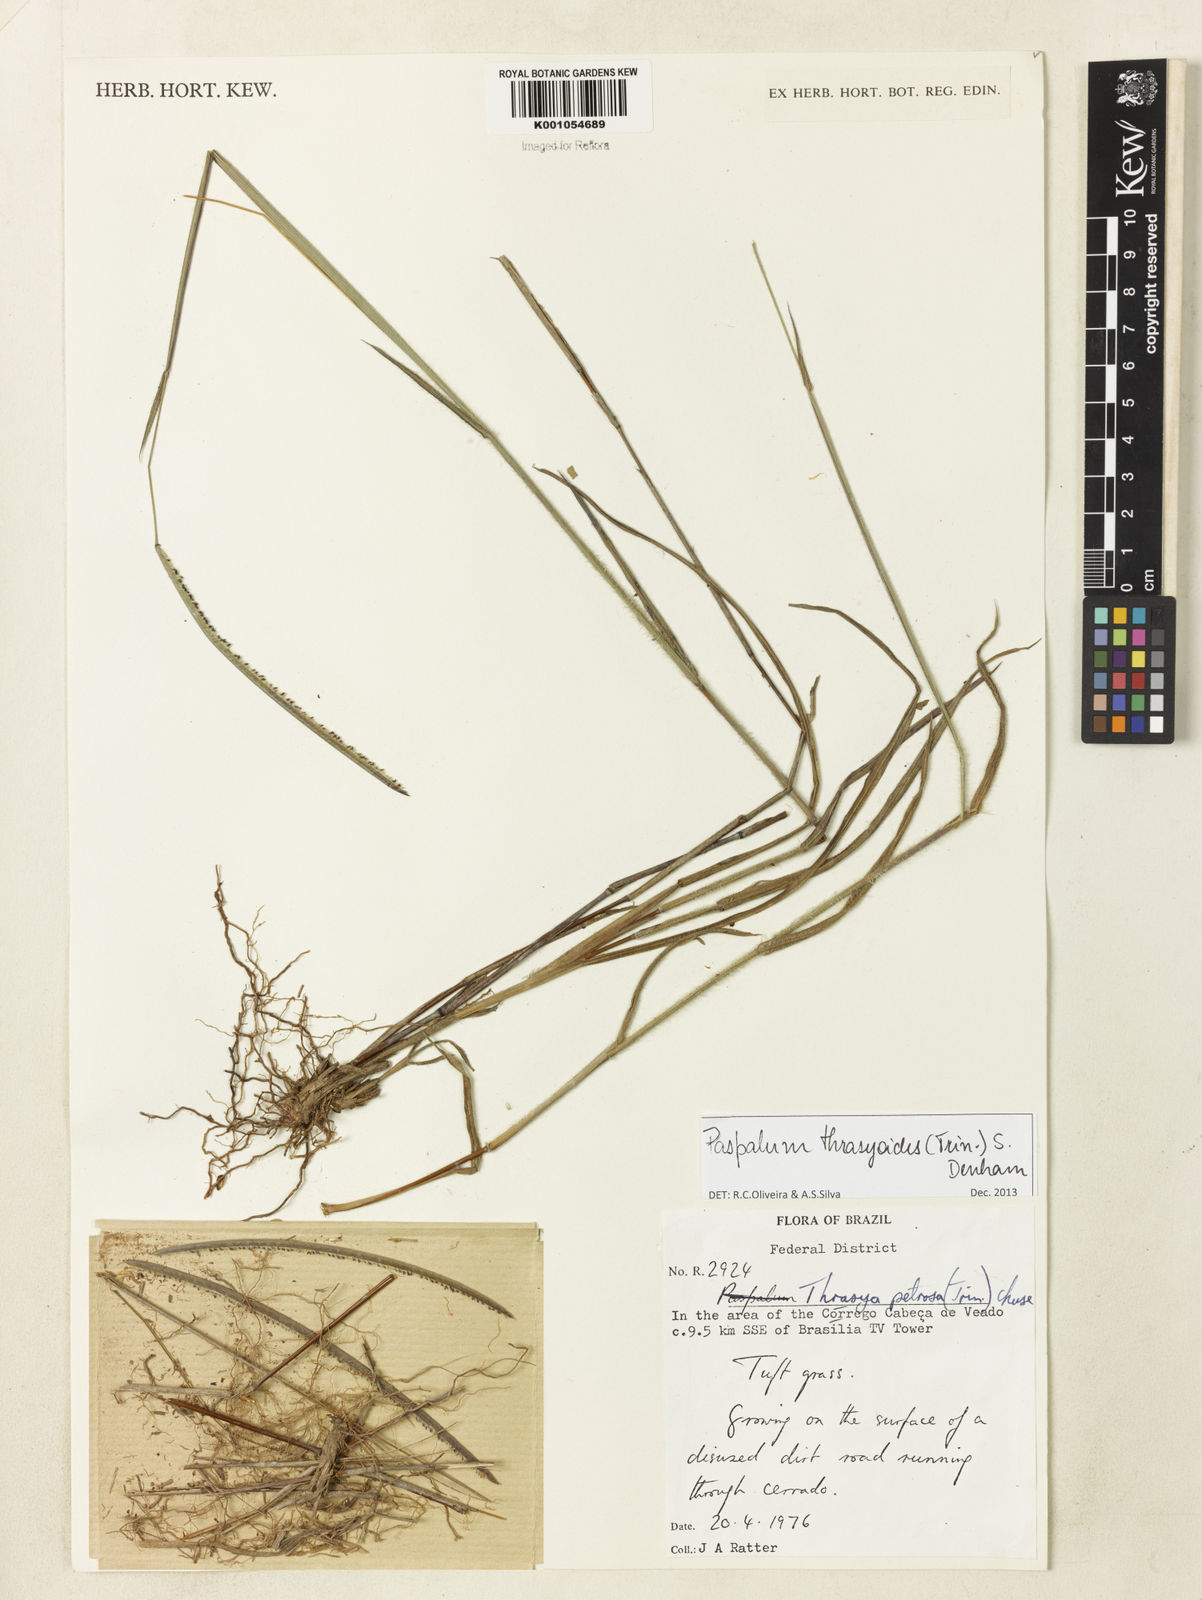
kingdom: Plantae
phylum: Tracheophyta
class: Liliopsida
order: Poales
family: Poaceae
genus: Paspalum
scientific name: Paspalum thrasyoides
